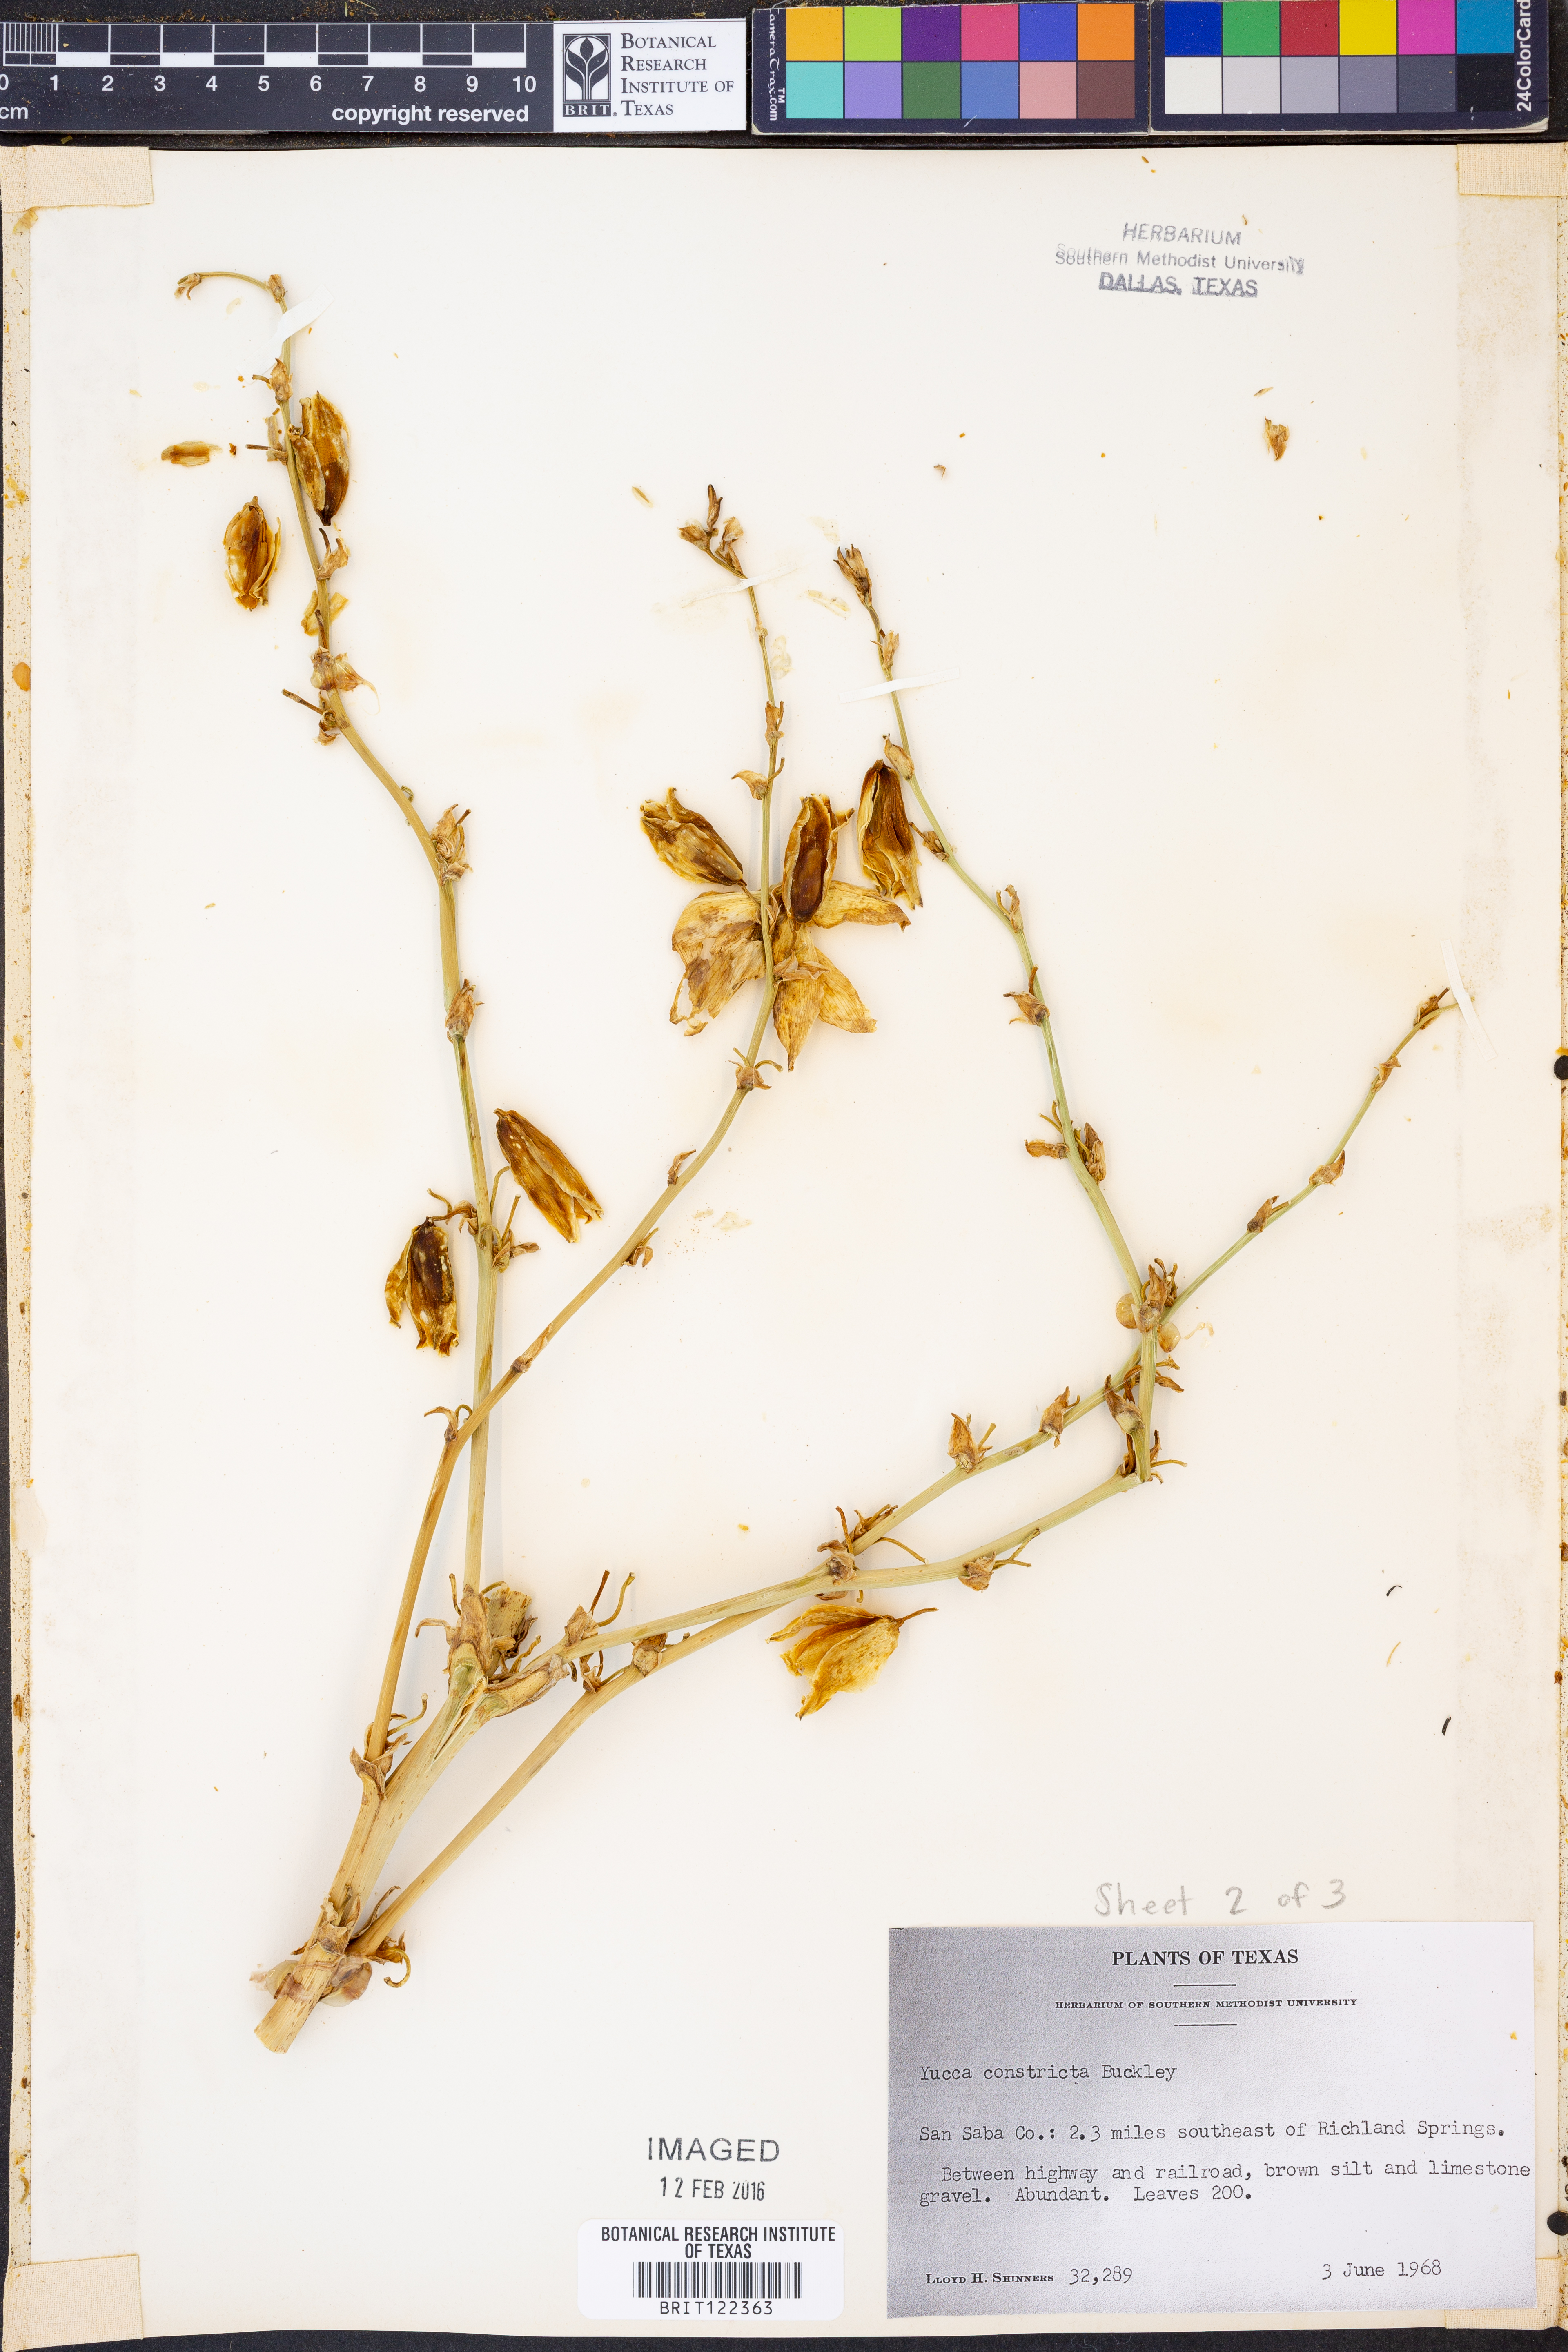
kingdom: Plantae
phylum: Tracheophyta
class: Liliopsida
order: Asparagales
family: Asparagaceae
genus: Yucca
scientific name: Yucca constricta
